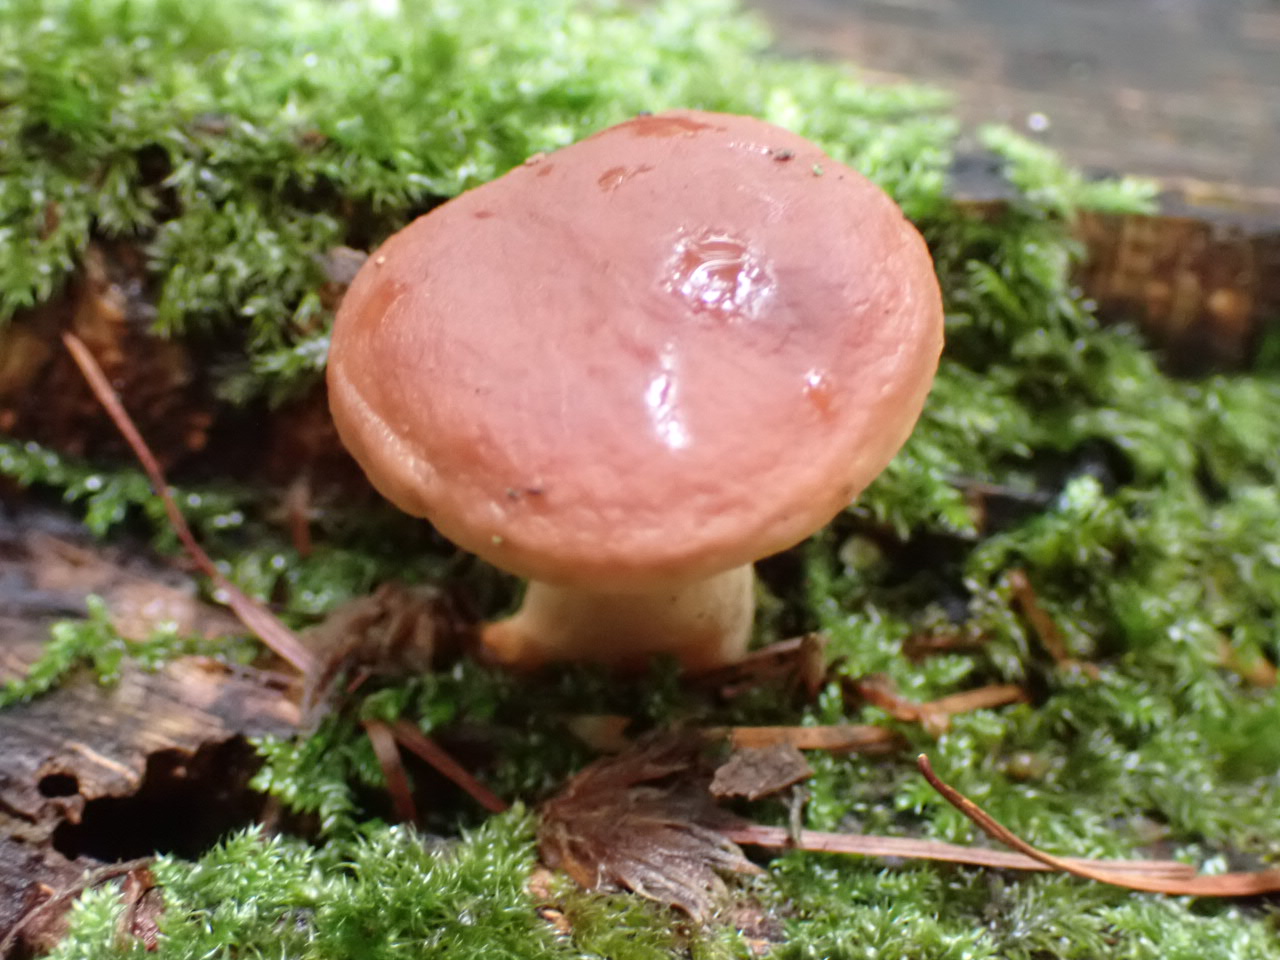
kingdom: Fungi
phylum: Basidiomycota
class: Agaricomycetes
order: Russulales
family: Russulaceae
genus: Lactarius
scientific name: Lactarius subdulcis
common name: sødlig mælkehat
